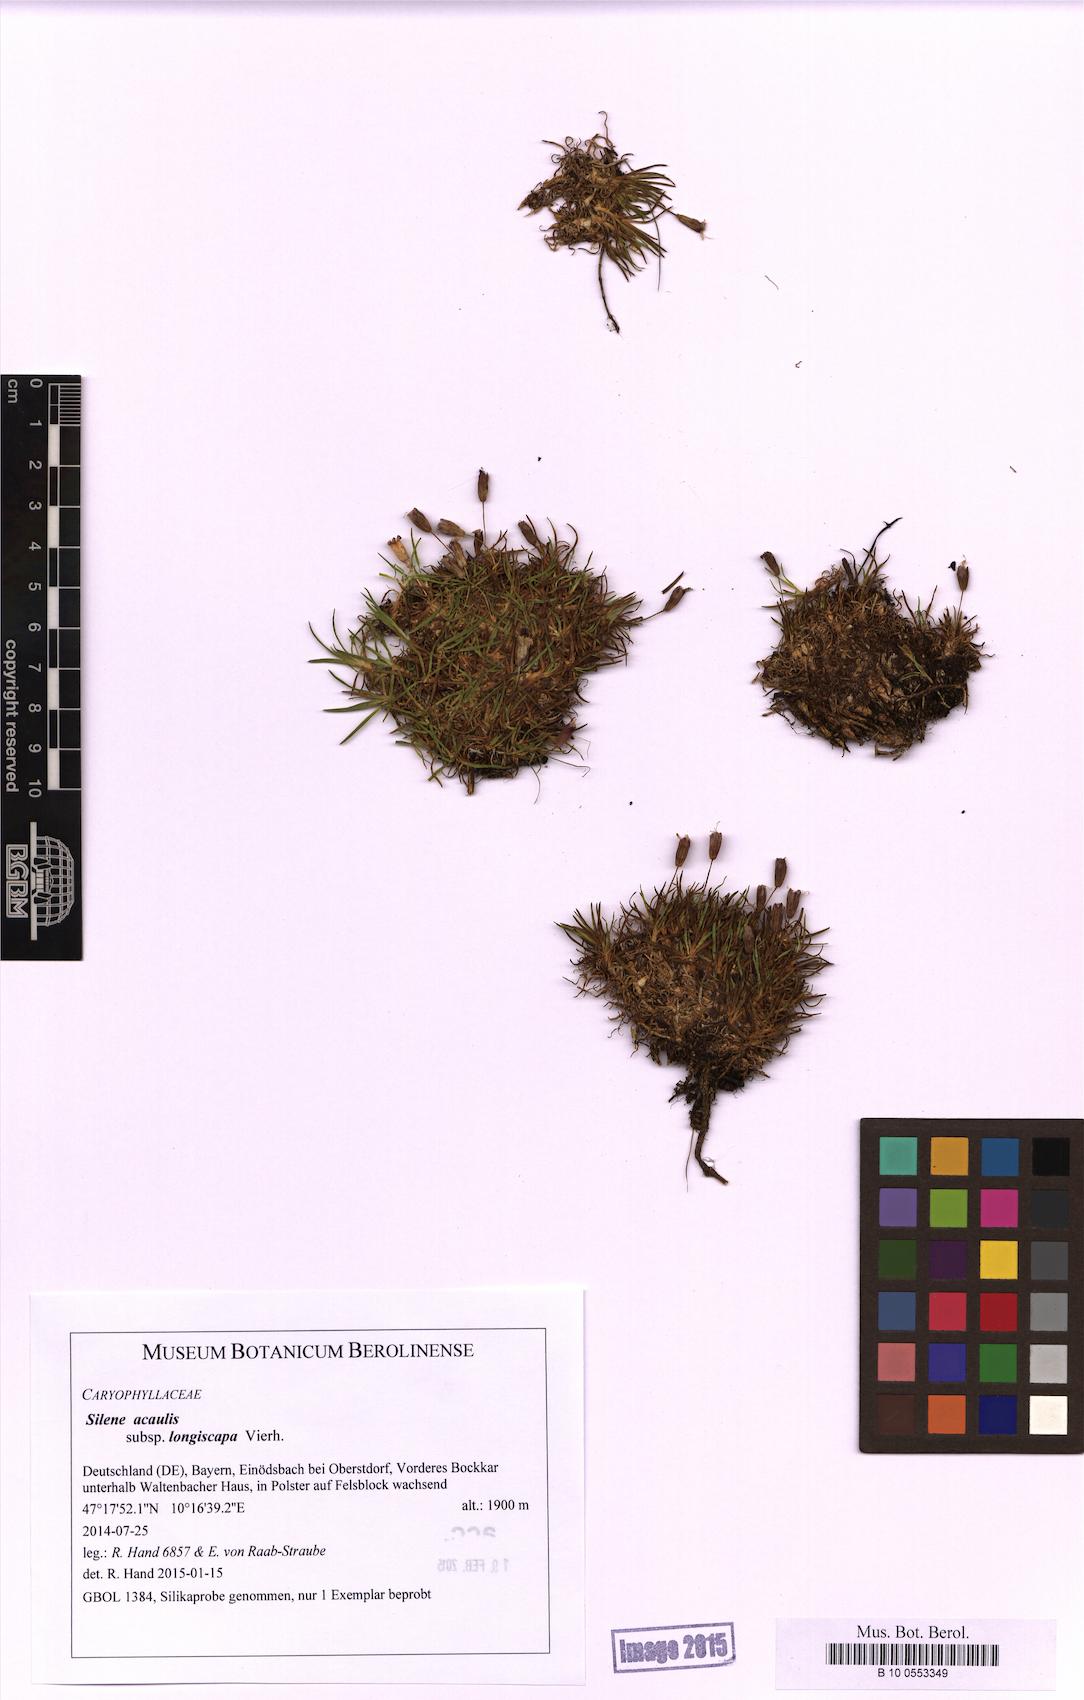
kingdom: Plantae
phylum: Tracheophyta
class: Magnoliopsida
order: Caryophyllales
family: Caryophyllaceae
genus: Silene
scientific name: Silene acaulis
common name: Moss campion
